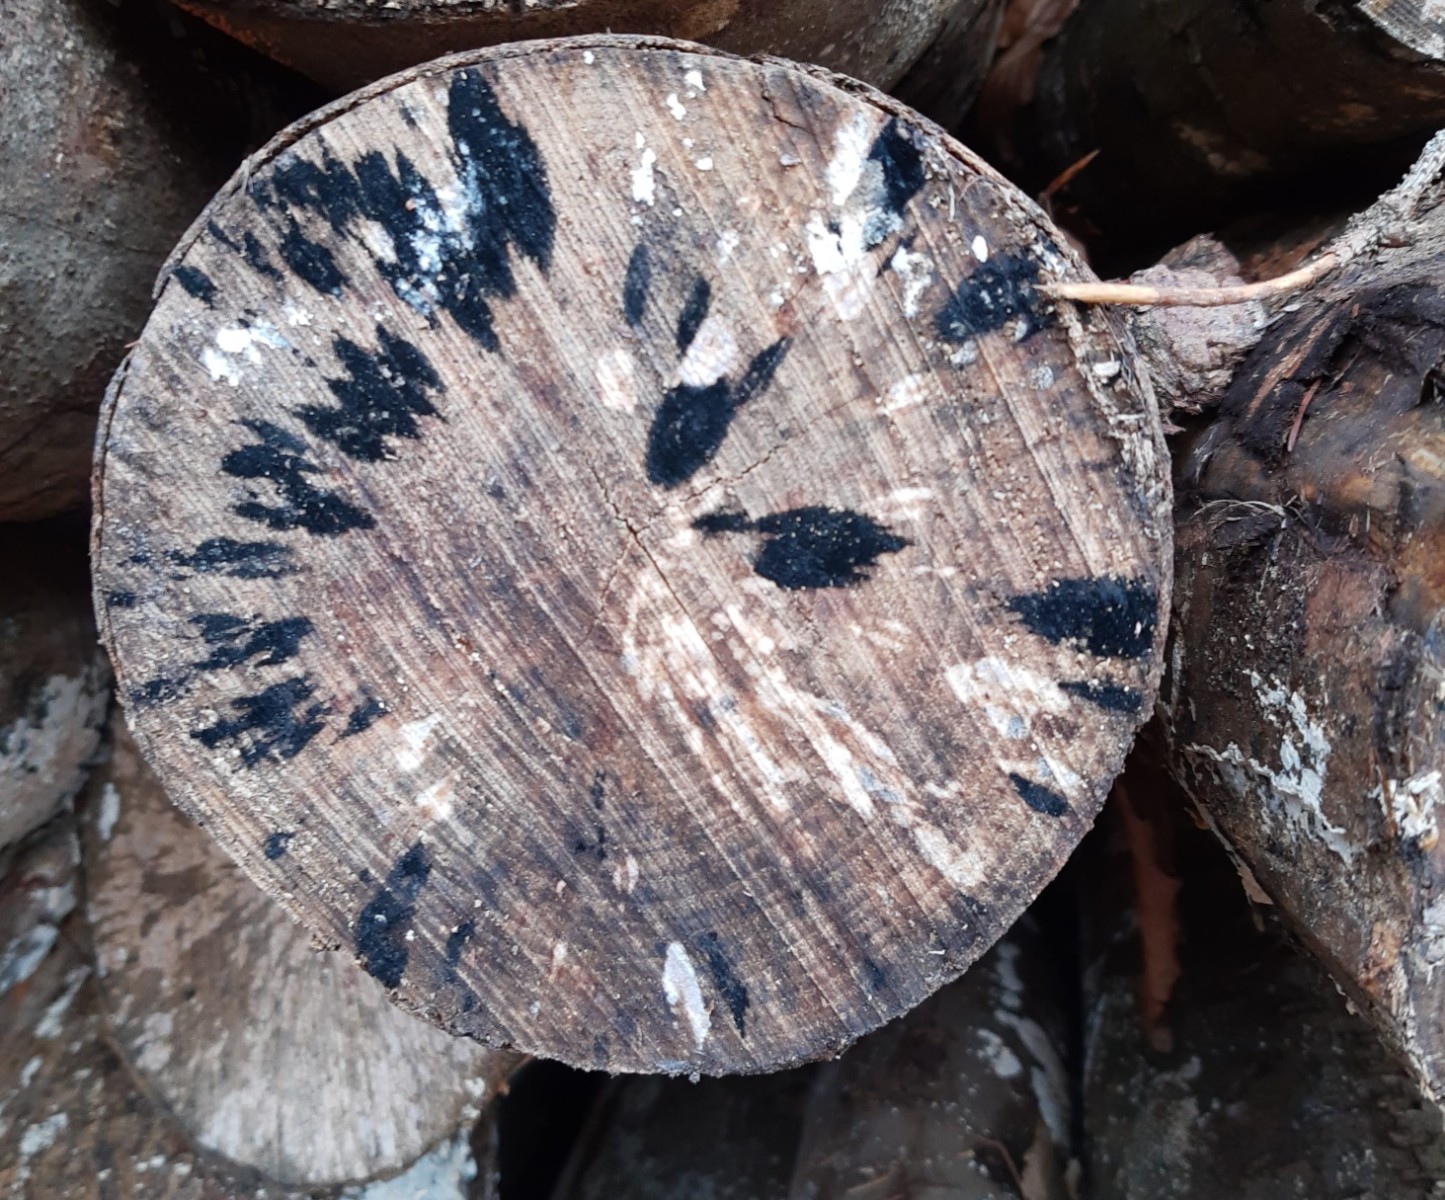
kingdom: Fungi
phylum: Ascomycota
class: Leotiomycetes
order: Helotiales
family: Helotiaceae
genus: Bispora
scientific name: Bispora pallescens
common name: måtte-snitskive
